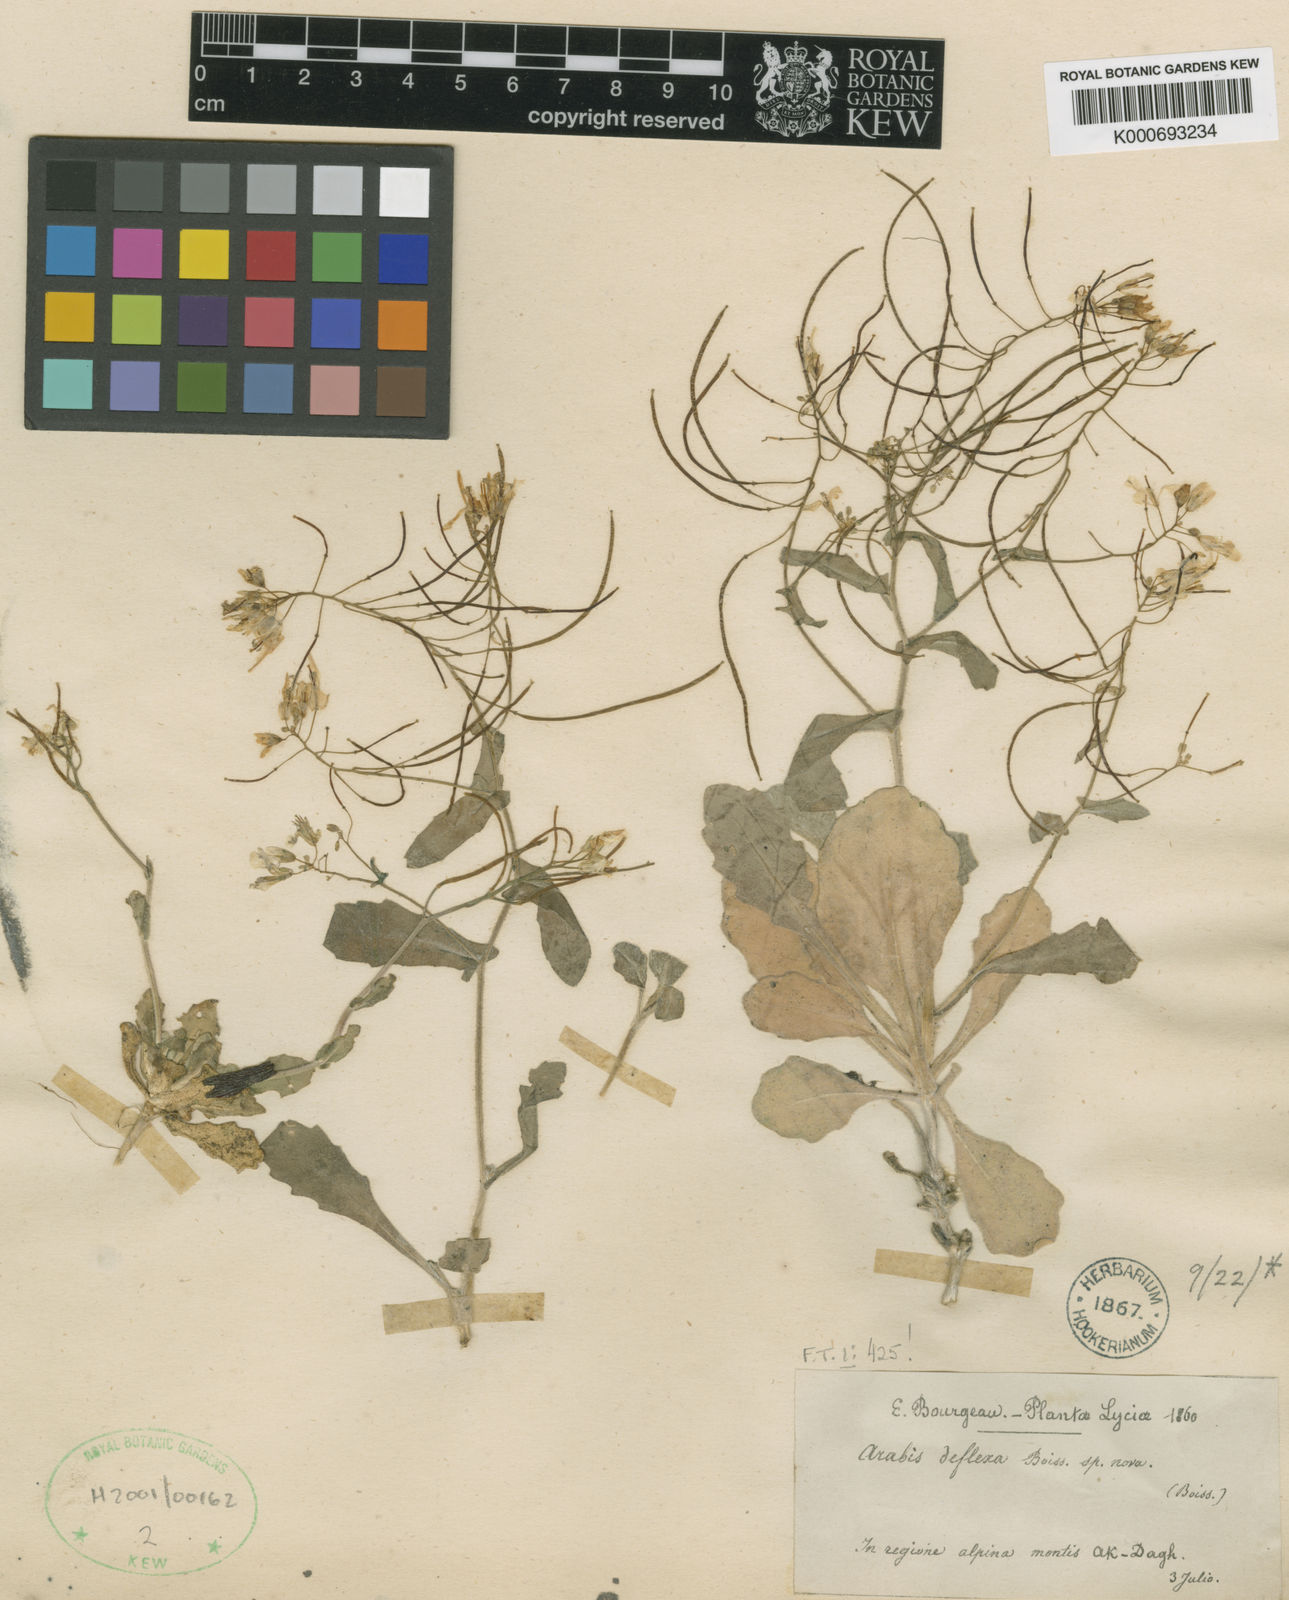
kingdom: Plantae
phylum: Tracheophyta
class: Magnoliopsida
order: Brassicales
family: Brassicaceae
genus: Arabis
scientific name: Arabis deflexa
